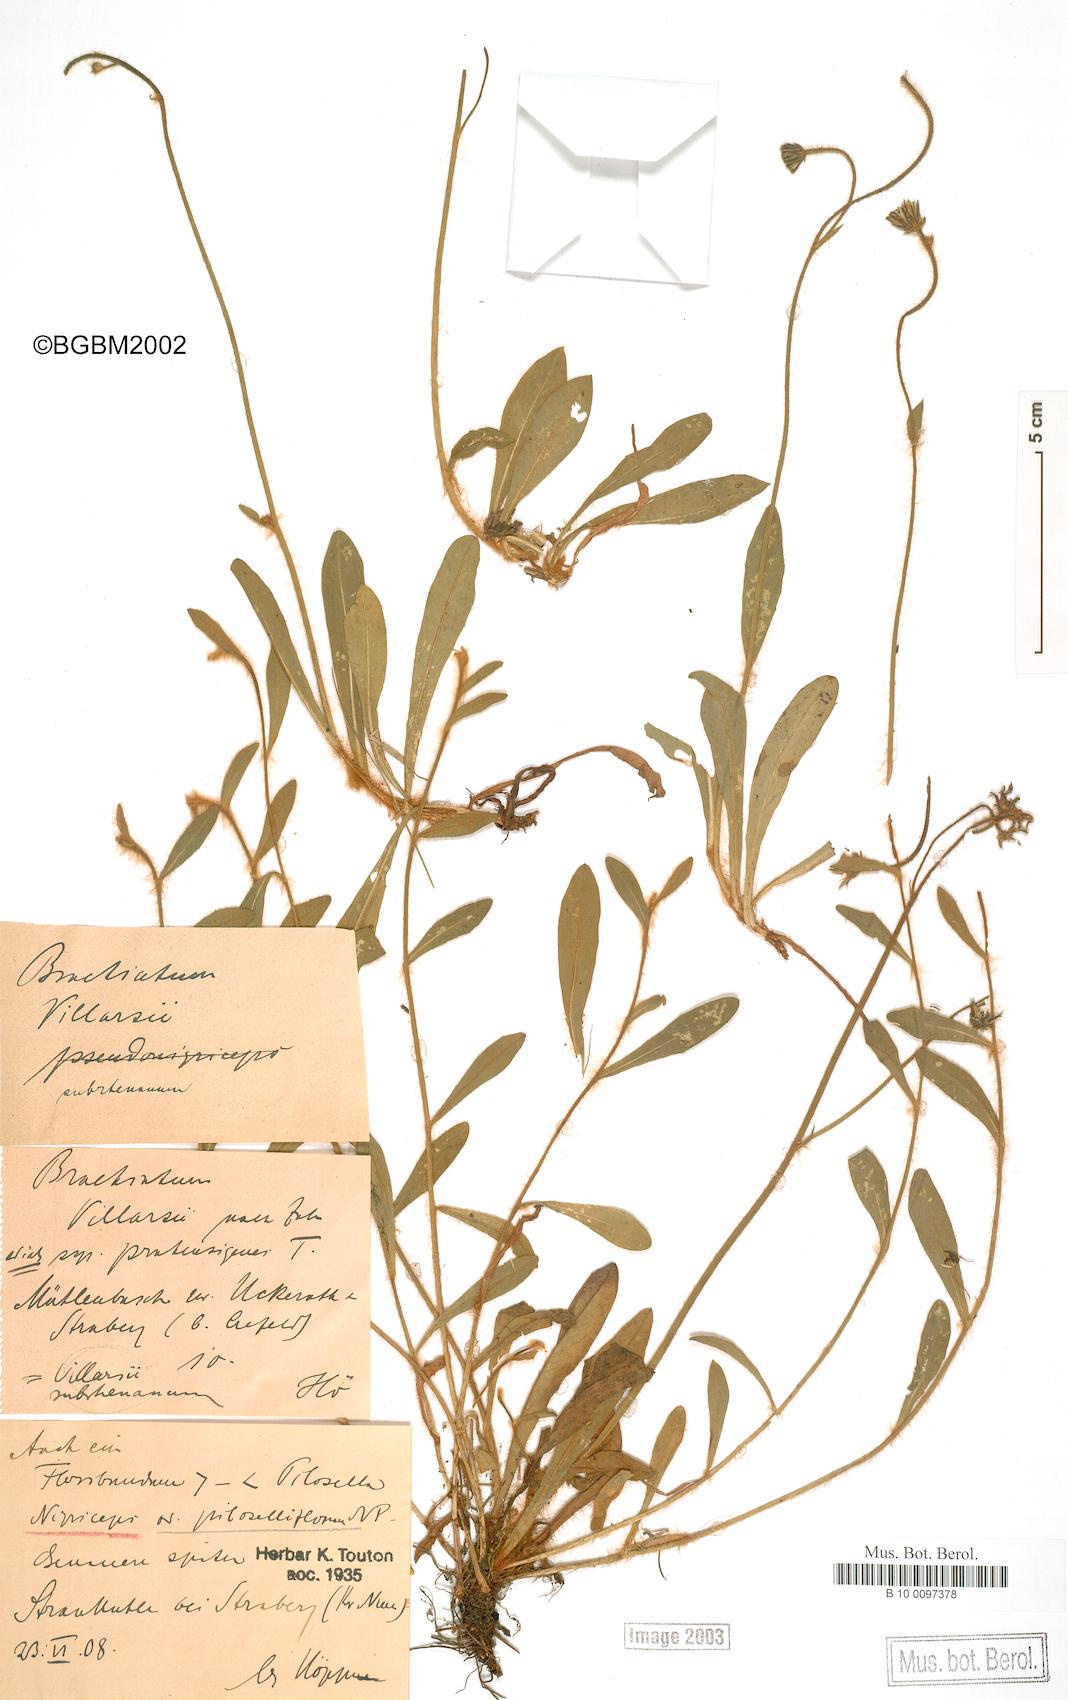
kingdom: Plantae
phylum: Tracheophyta
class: Magnoliopsida
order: Asterales
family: Asteraceae
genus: Pilosella
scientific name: Pilosella acutifolia
